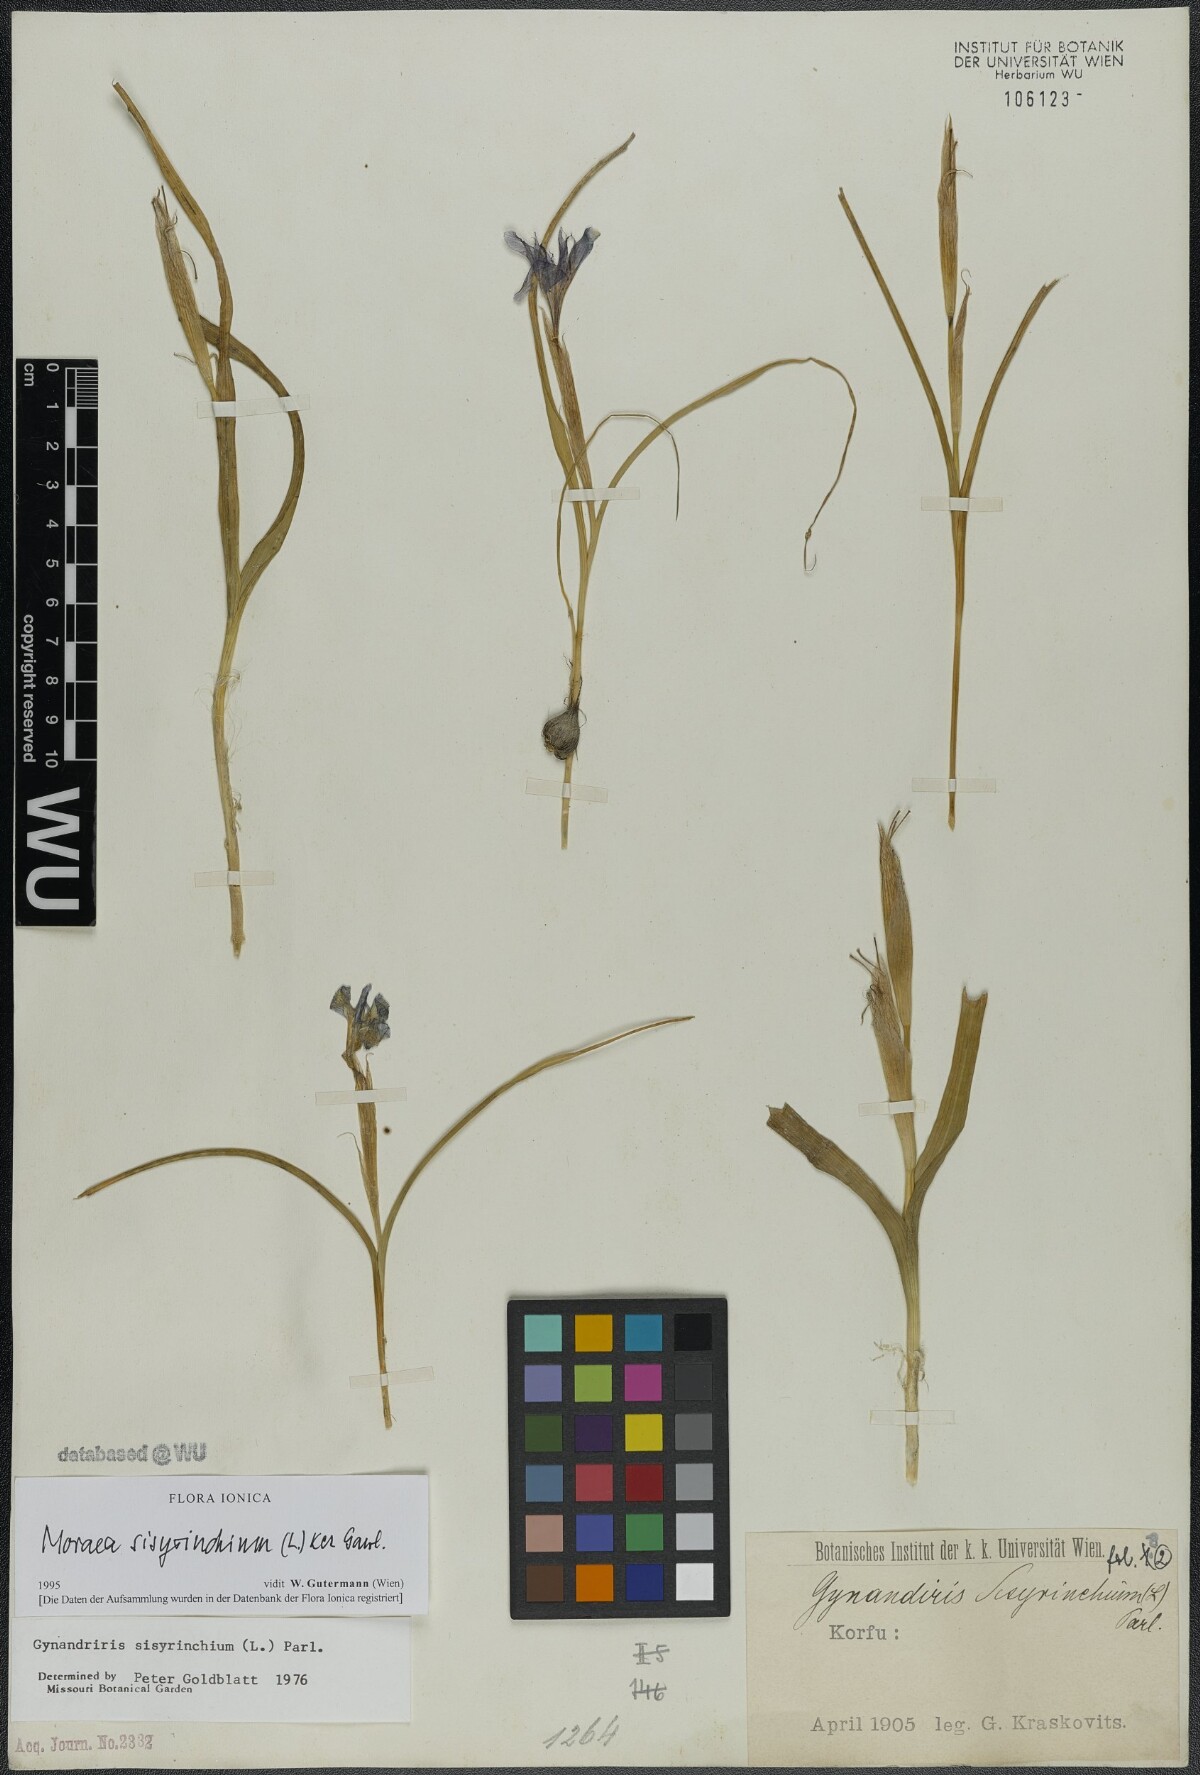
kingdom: Plantae
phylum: Tracheophyta
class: Liliopsida
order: Asparagales
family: Iridaceae
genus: Moraea
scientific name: Moraea sisyrinchium
